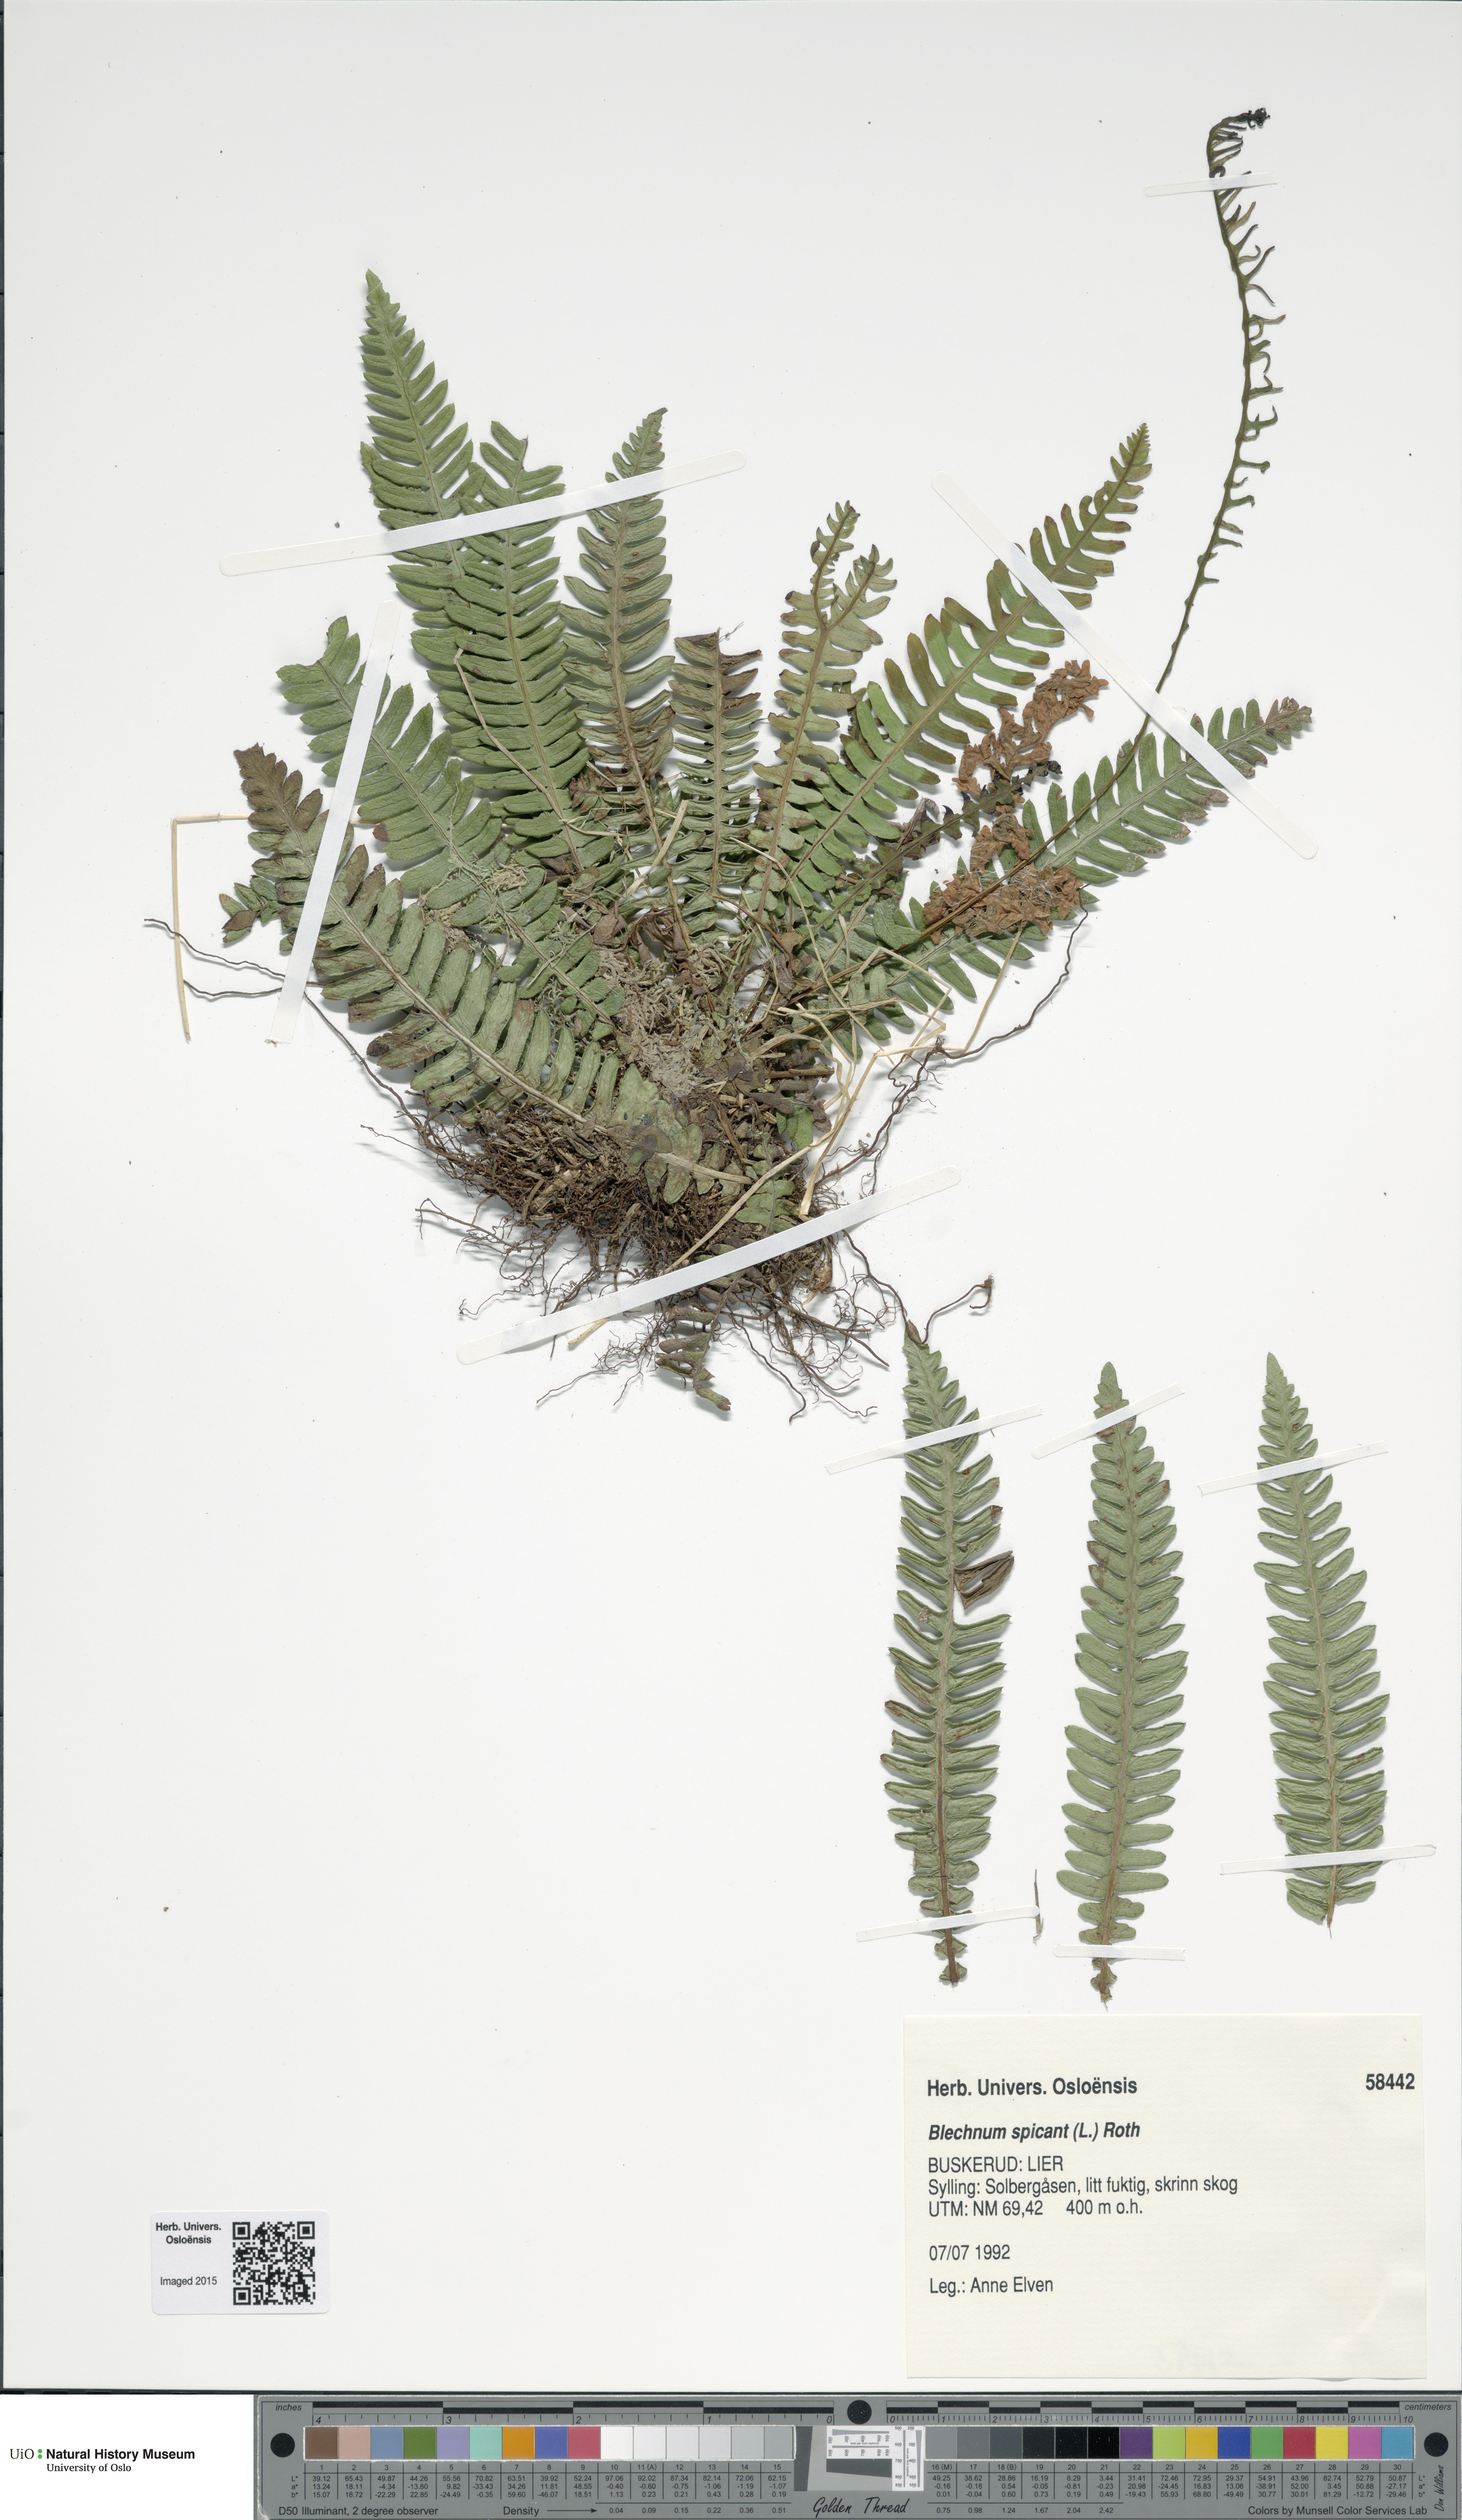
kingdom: Plantae
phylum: Tracheophyta
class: Polypodiopsida
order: Polypodiales
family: Blechnaceae
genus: Struthiopteris
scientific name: Struthiopteris spicant
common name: Deer fern
